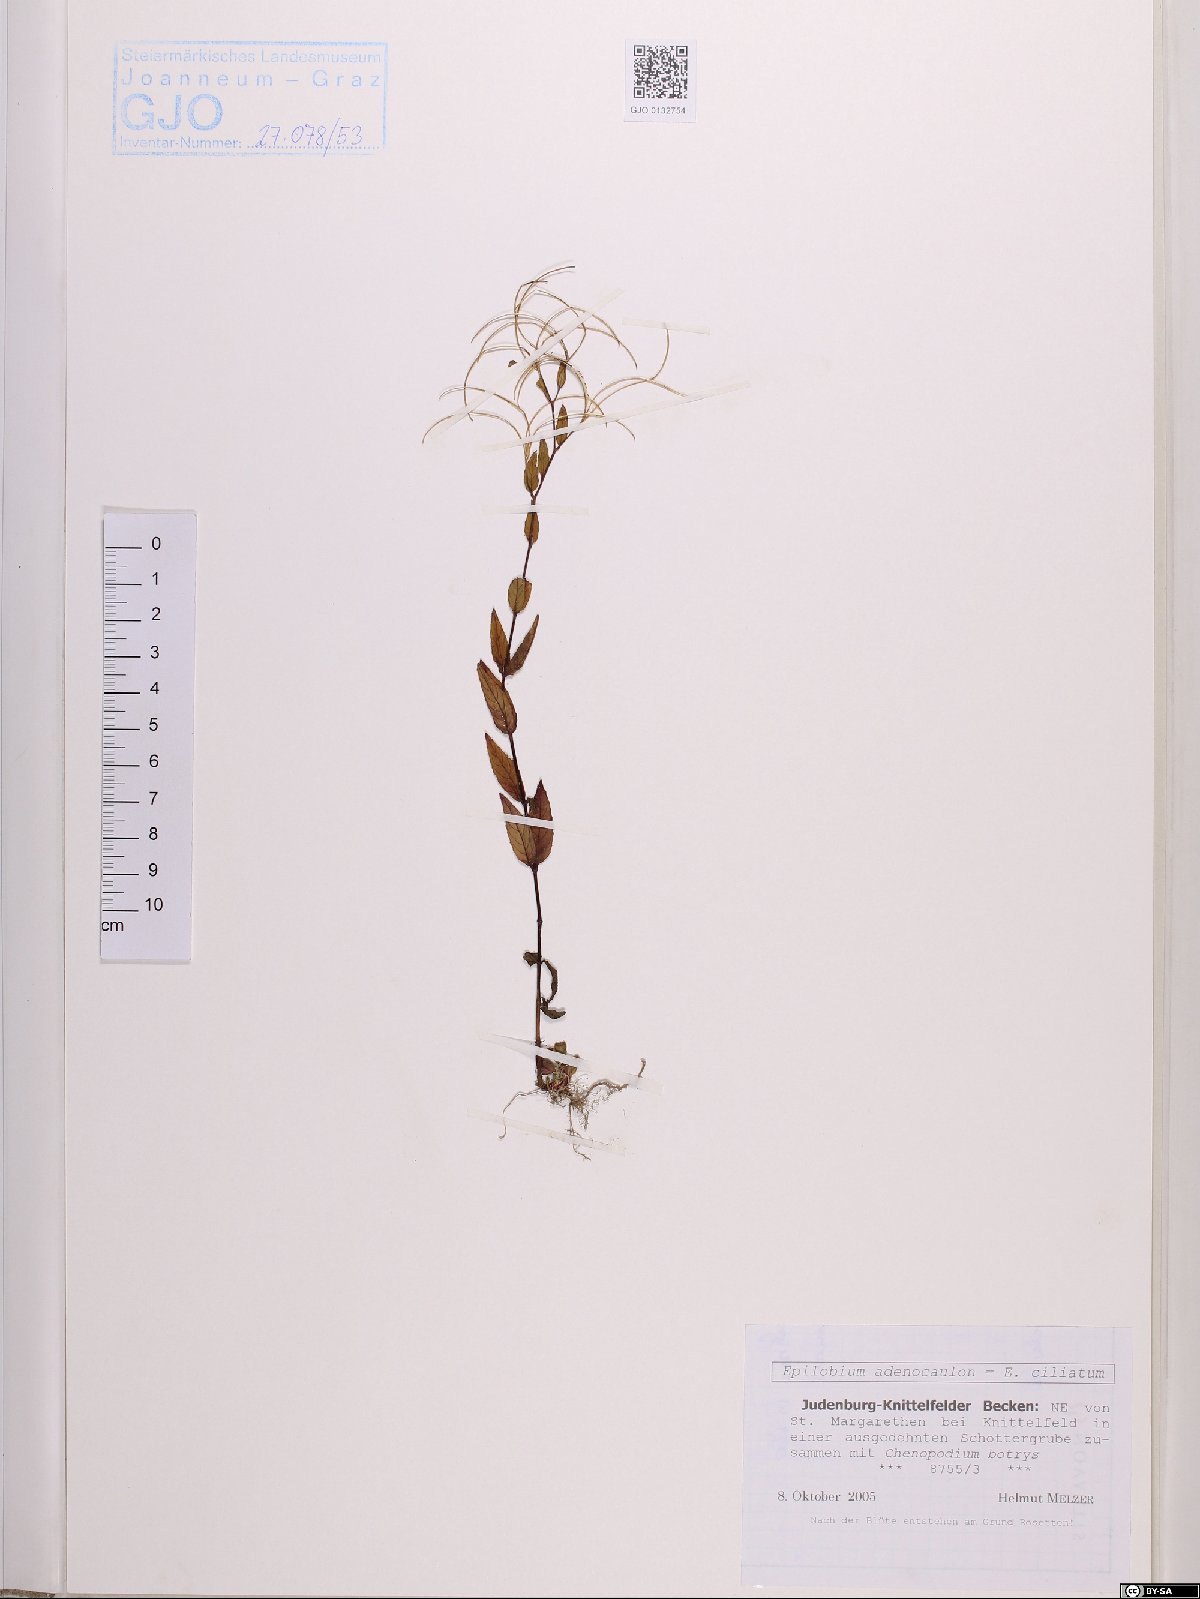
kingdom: Plantae
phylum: Tracheophyta
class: Magnoliopsida
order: Myrtales
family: Onagraceae
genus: Epilobium
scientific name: Epilobium ciliatum
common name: American willowherb
